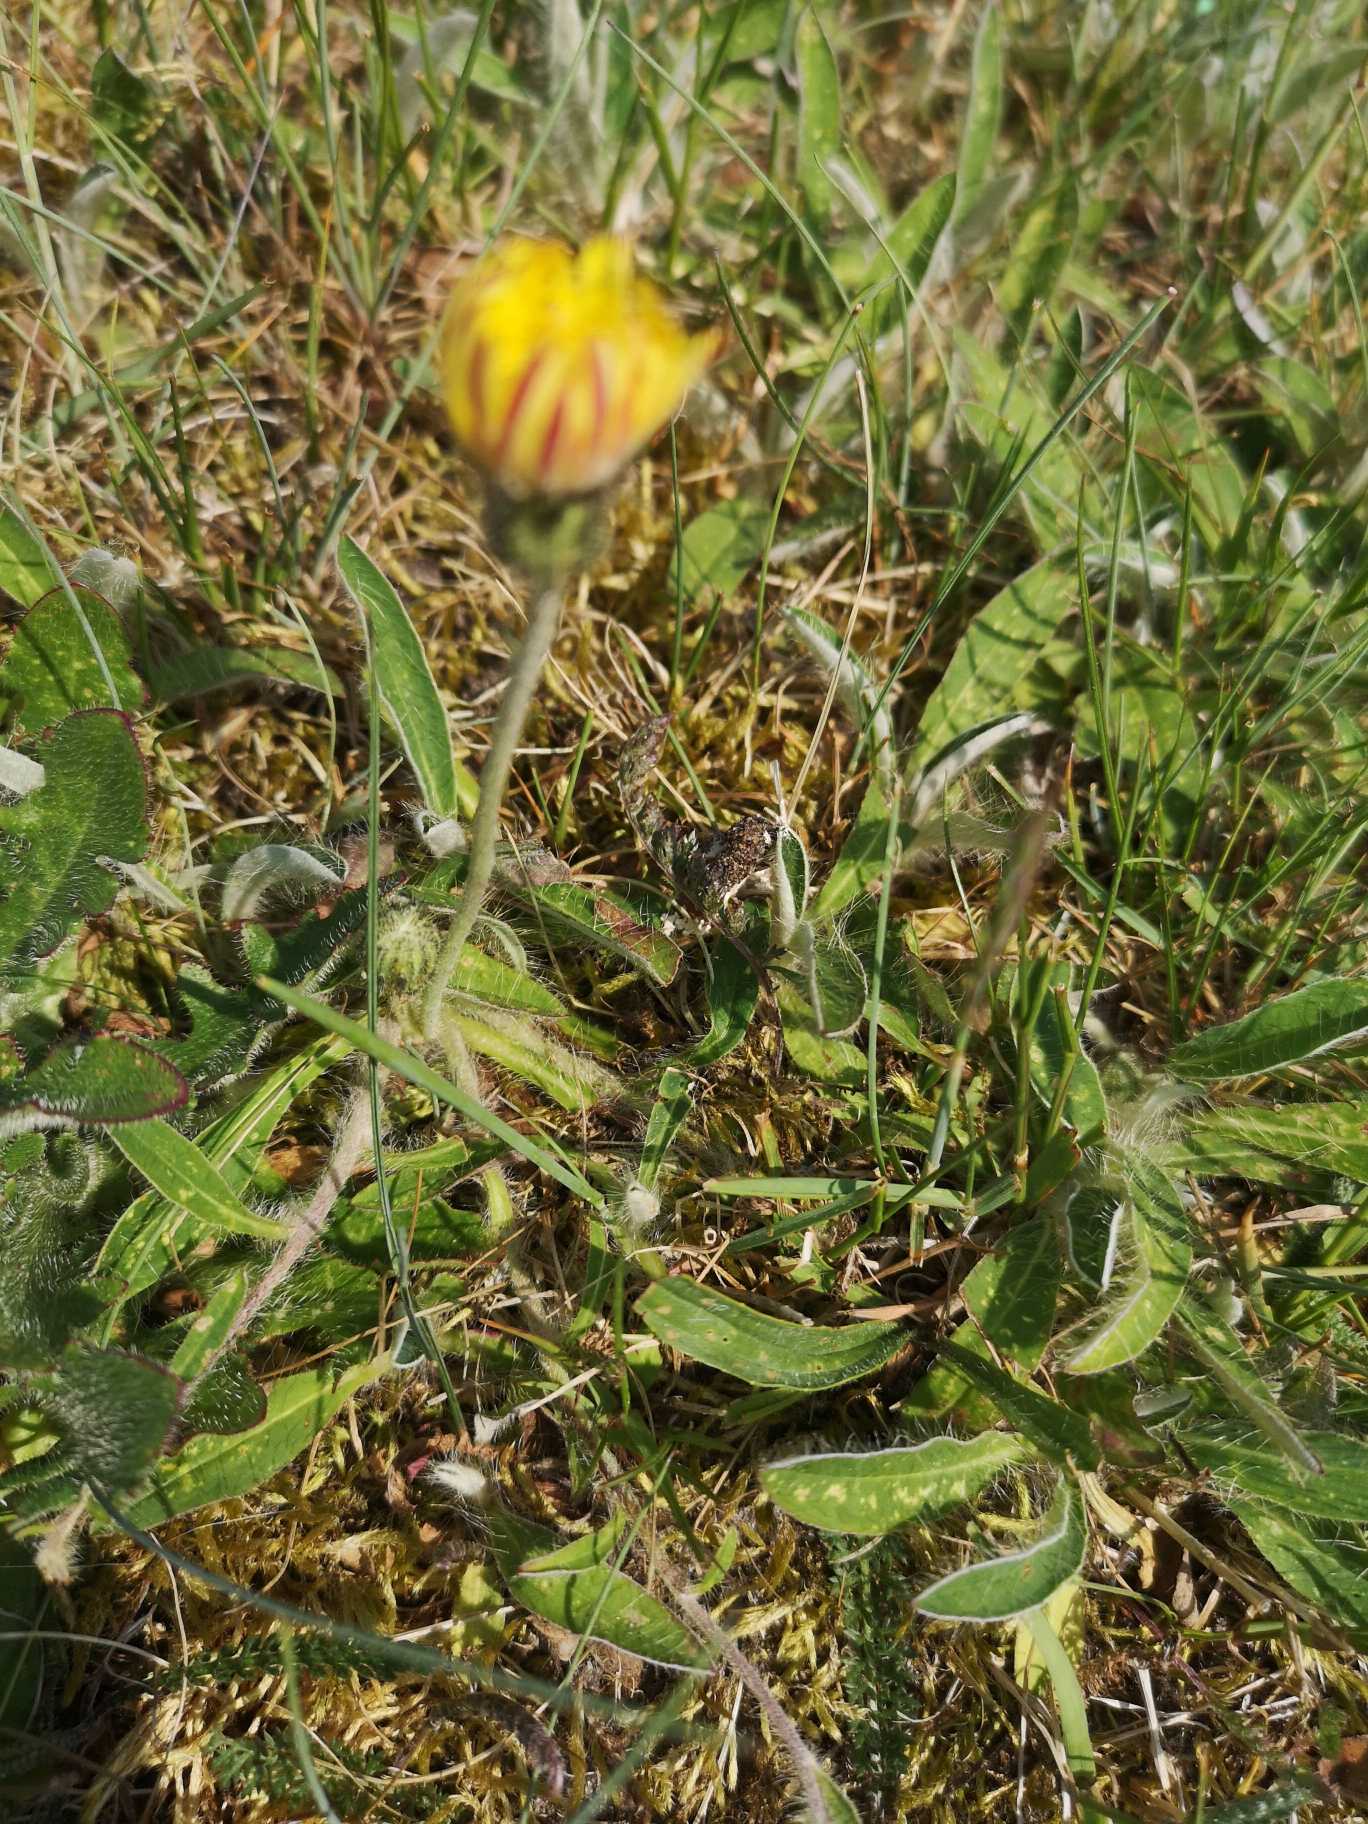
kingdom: Plantae
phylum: Tracheophyta
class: Magnoliopsida
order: Asterales
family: Asteraceae
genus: Pilosella
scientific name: Pilosella officinarum
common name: Håret høgeurt
